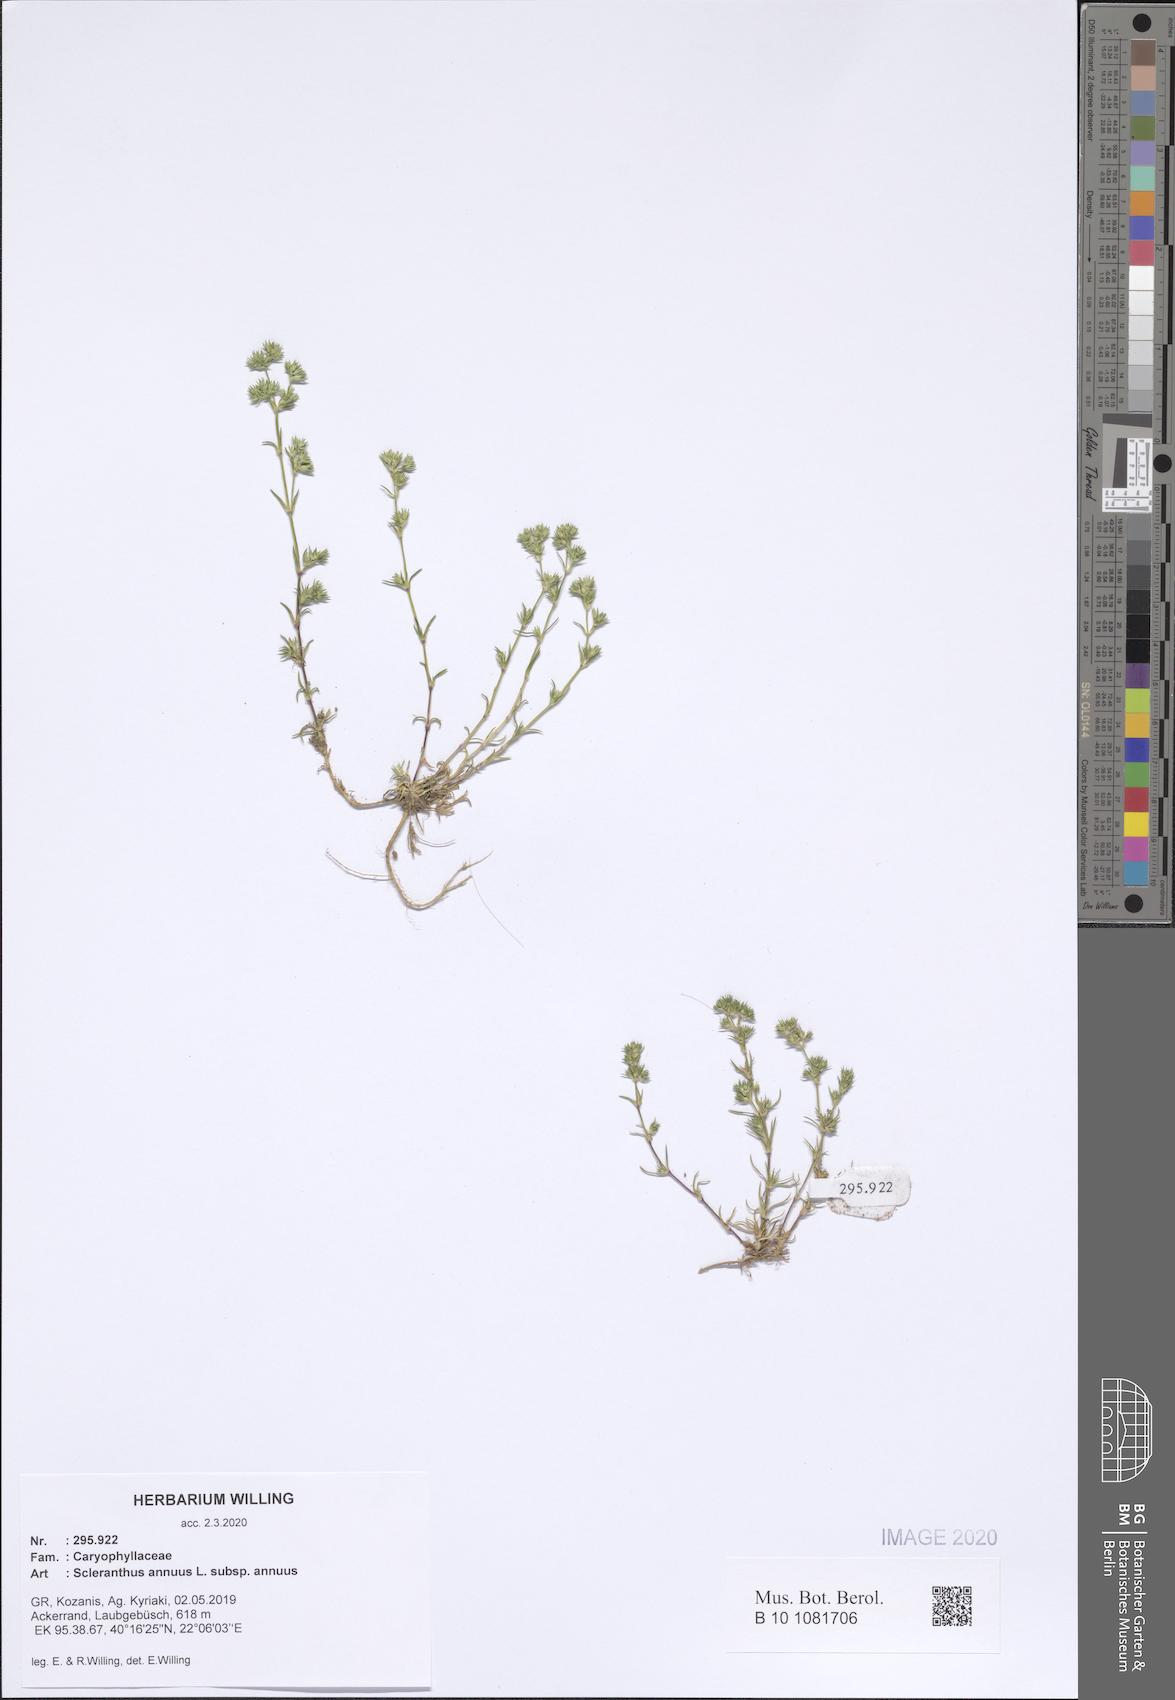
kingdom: Plantae
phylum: Tracheophyta
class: Magnoliopsida
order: Caryophyllales
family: Caryophyllaceae
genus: Scleranthus
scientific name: Scleranthus annuus
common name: Annual knawel
